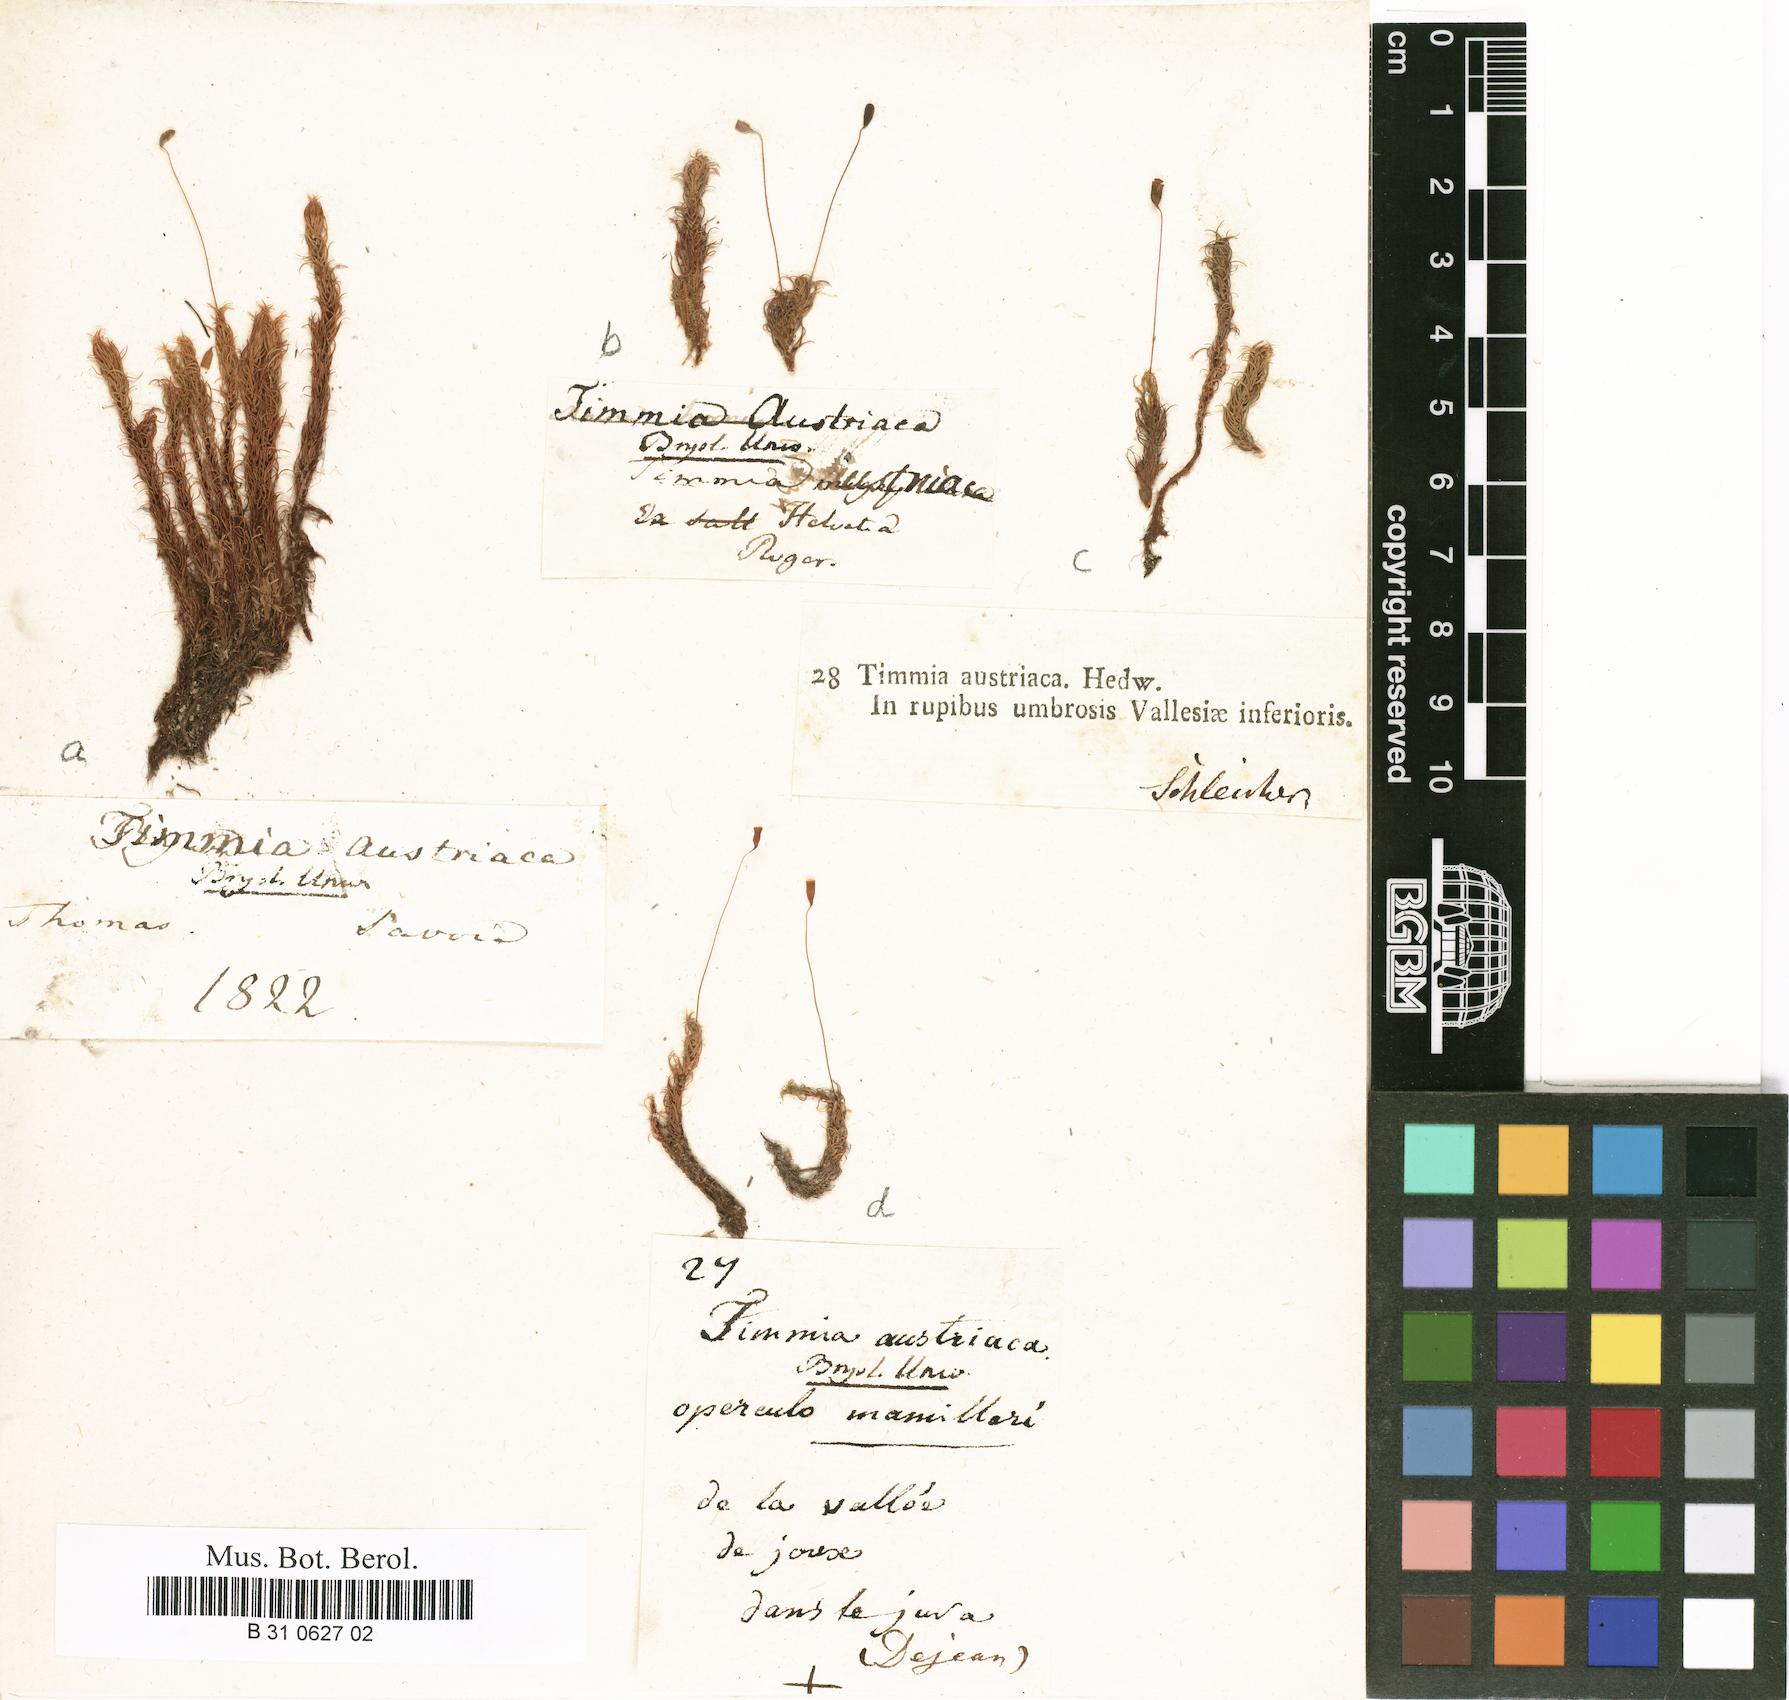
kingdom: Plantae
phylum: Bryophyta
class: Bryopsida
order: Timmiales
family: Timmiaceae
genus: Timmia
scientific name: Timmia austriaca
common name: Austrian timmia
